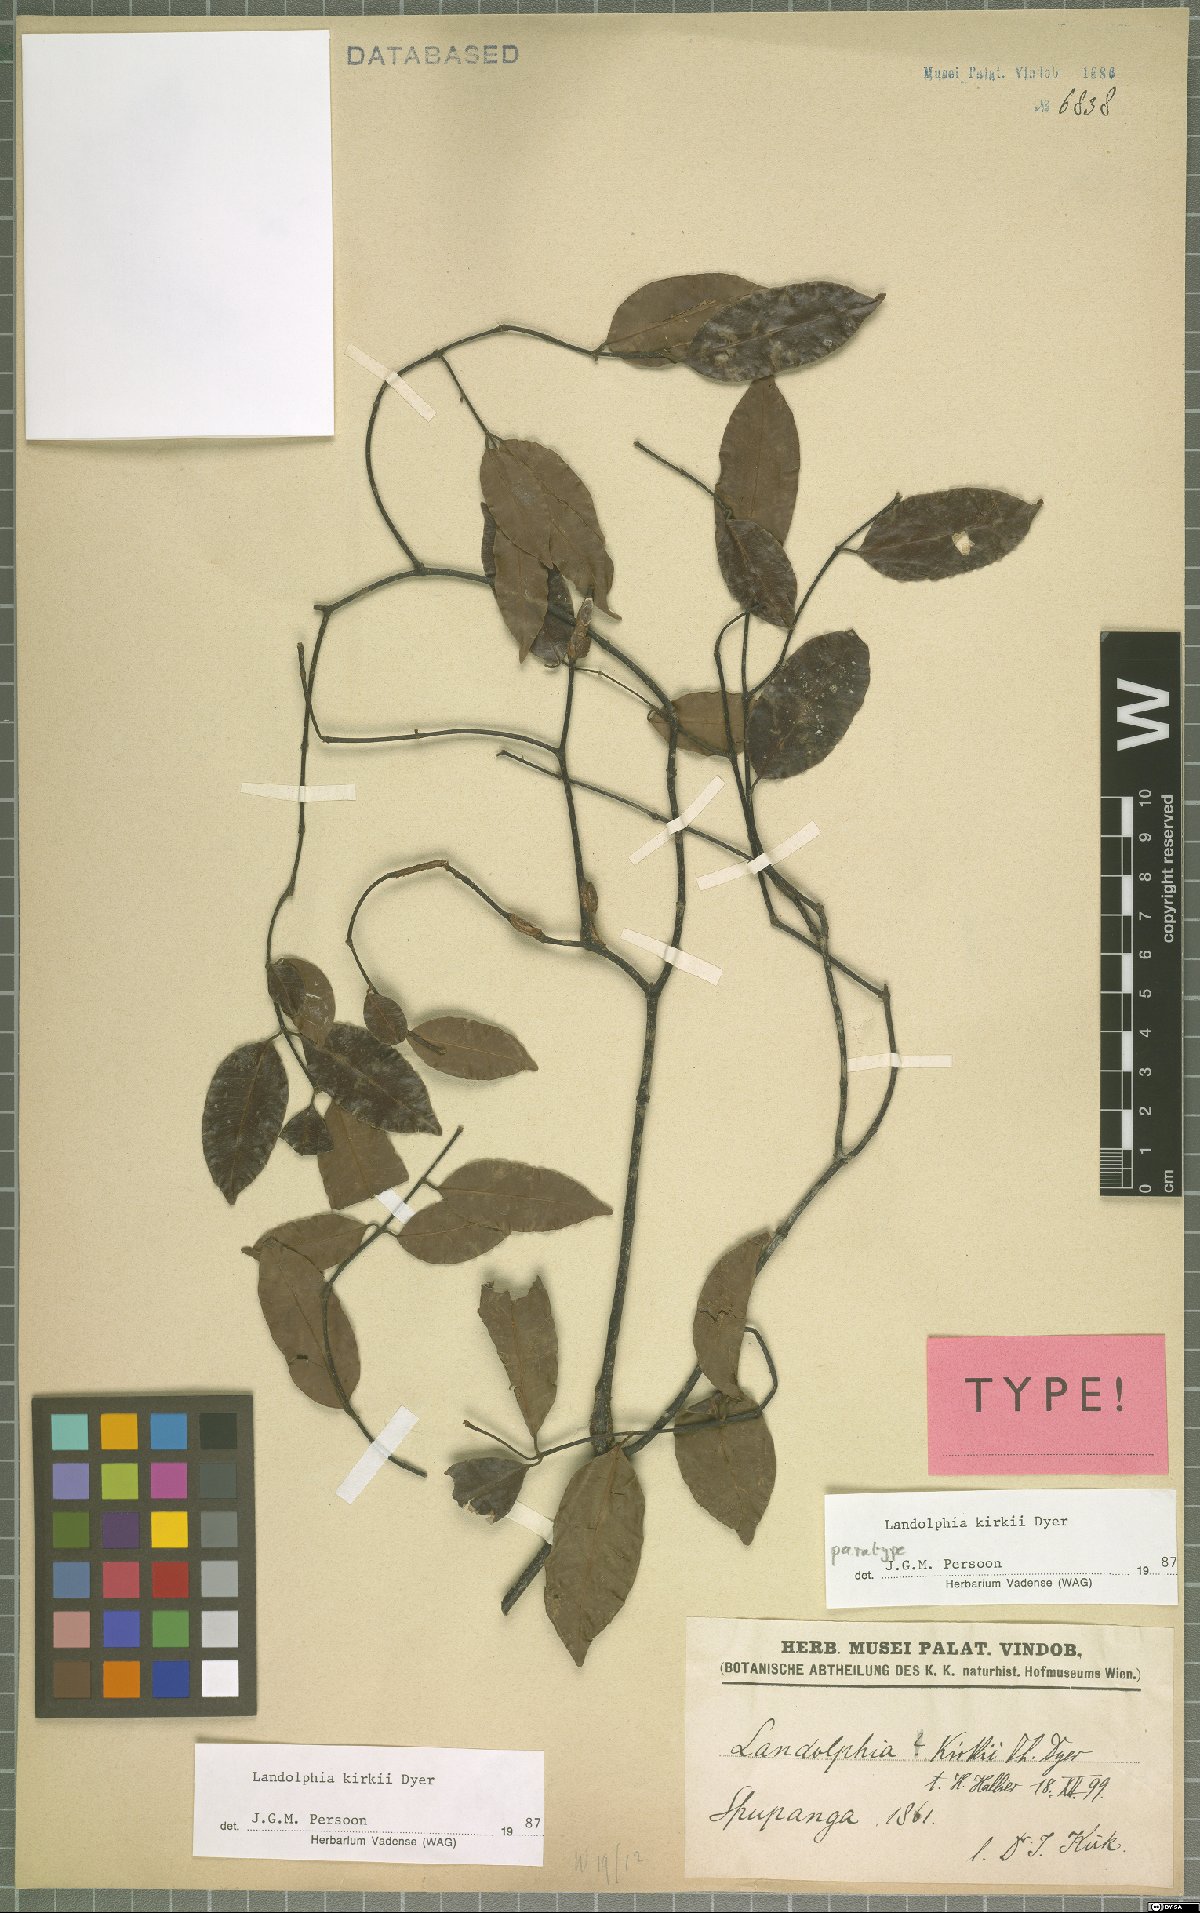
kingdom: Plantae
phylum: Tracheophyta
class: Magnoliopsida
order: Gentianales
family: Apocynaceae
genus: Landolphia
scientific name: Landolphia kirkii
